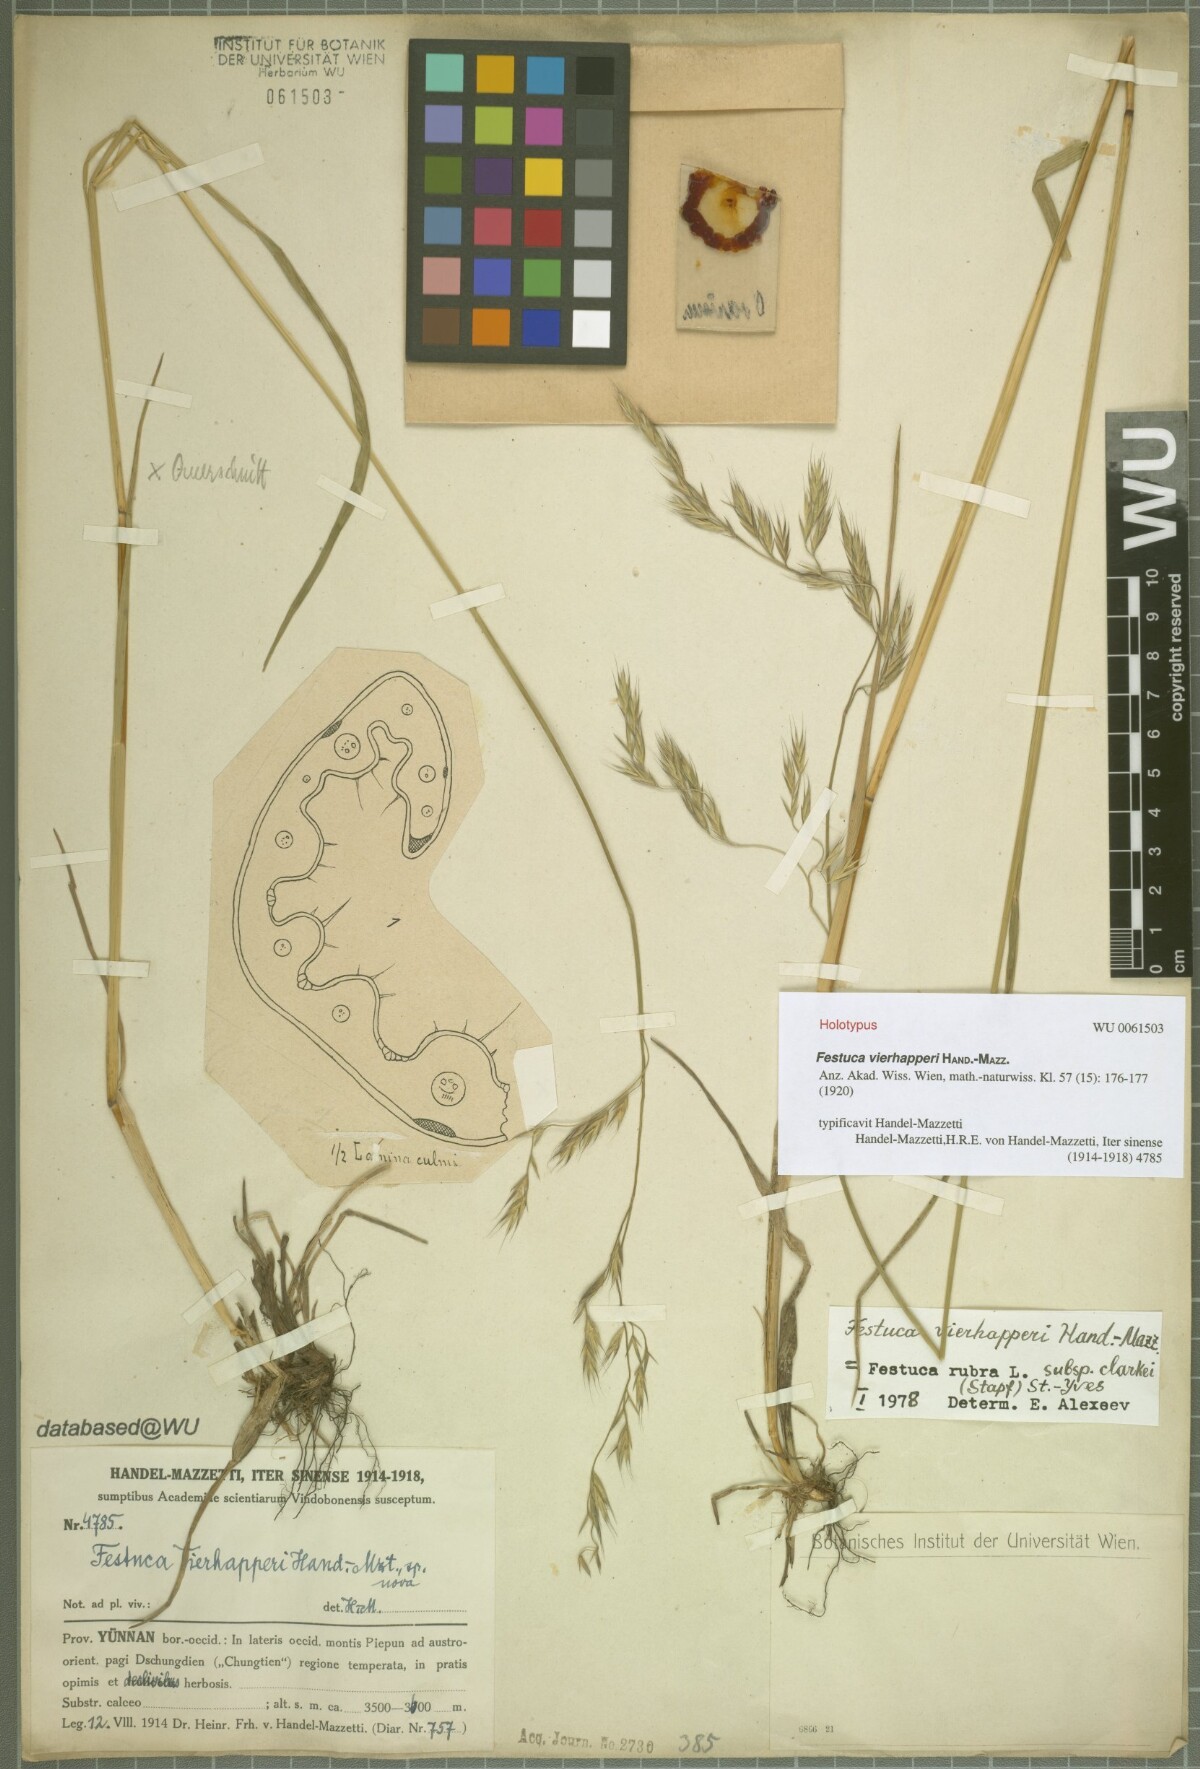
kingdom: Plantae
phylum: Tracheophyta
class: Liliopsida
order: Poales
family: Poaceae
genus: Festuca
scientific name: Festuca vierhapperi
